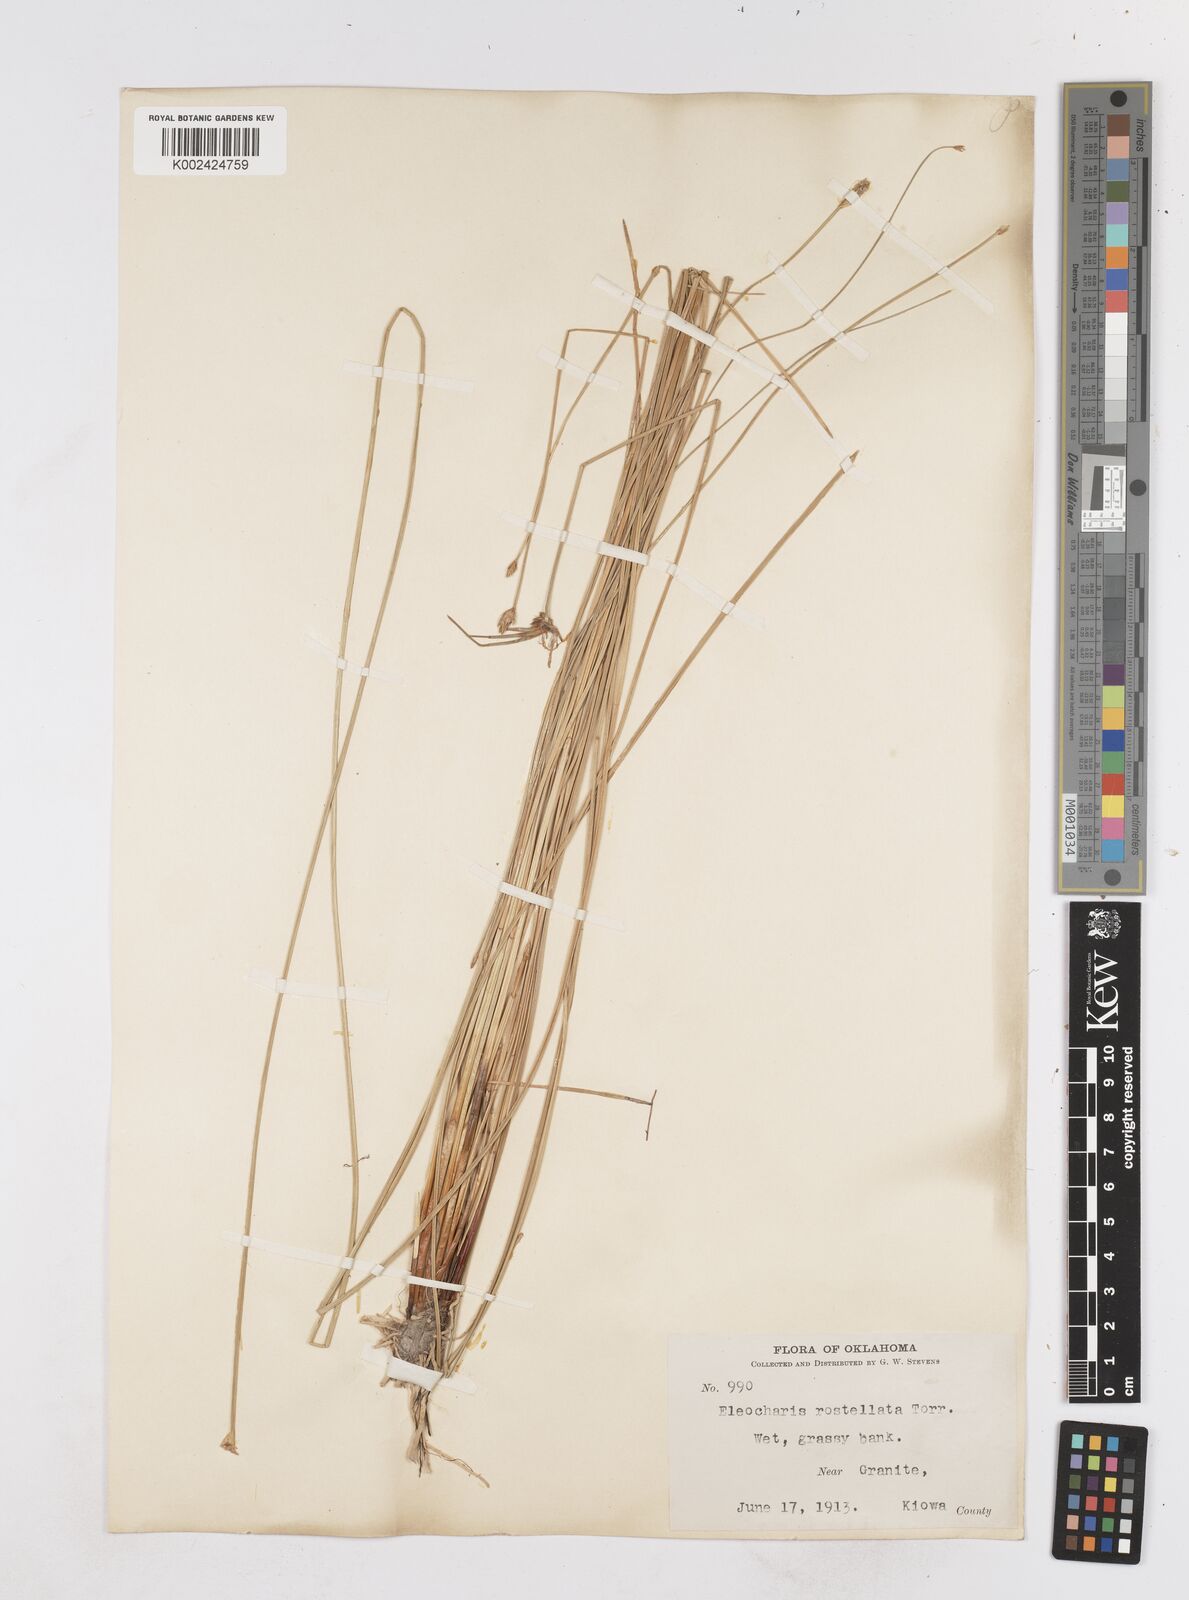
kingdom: Plantae
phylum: Tracheophyta
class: Liliopsida
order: Poales
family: Cyperaceae
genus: Eleocharis
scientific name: Eleocharis rostellata
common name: Walking sedge
